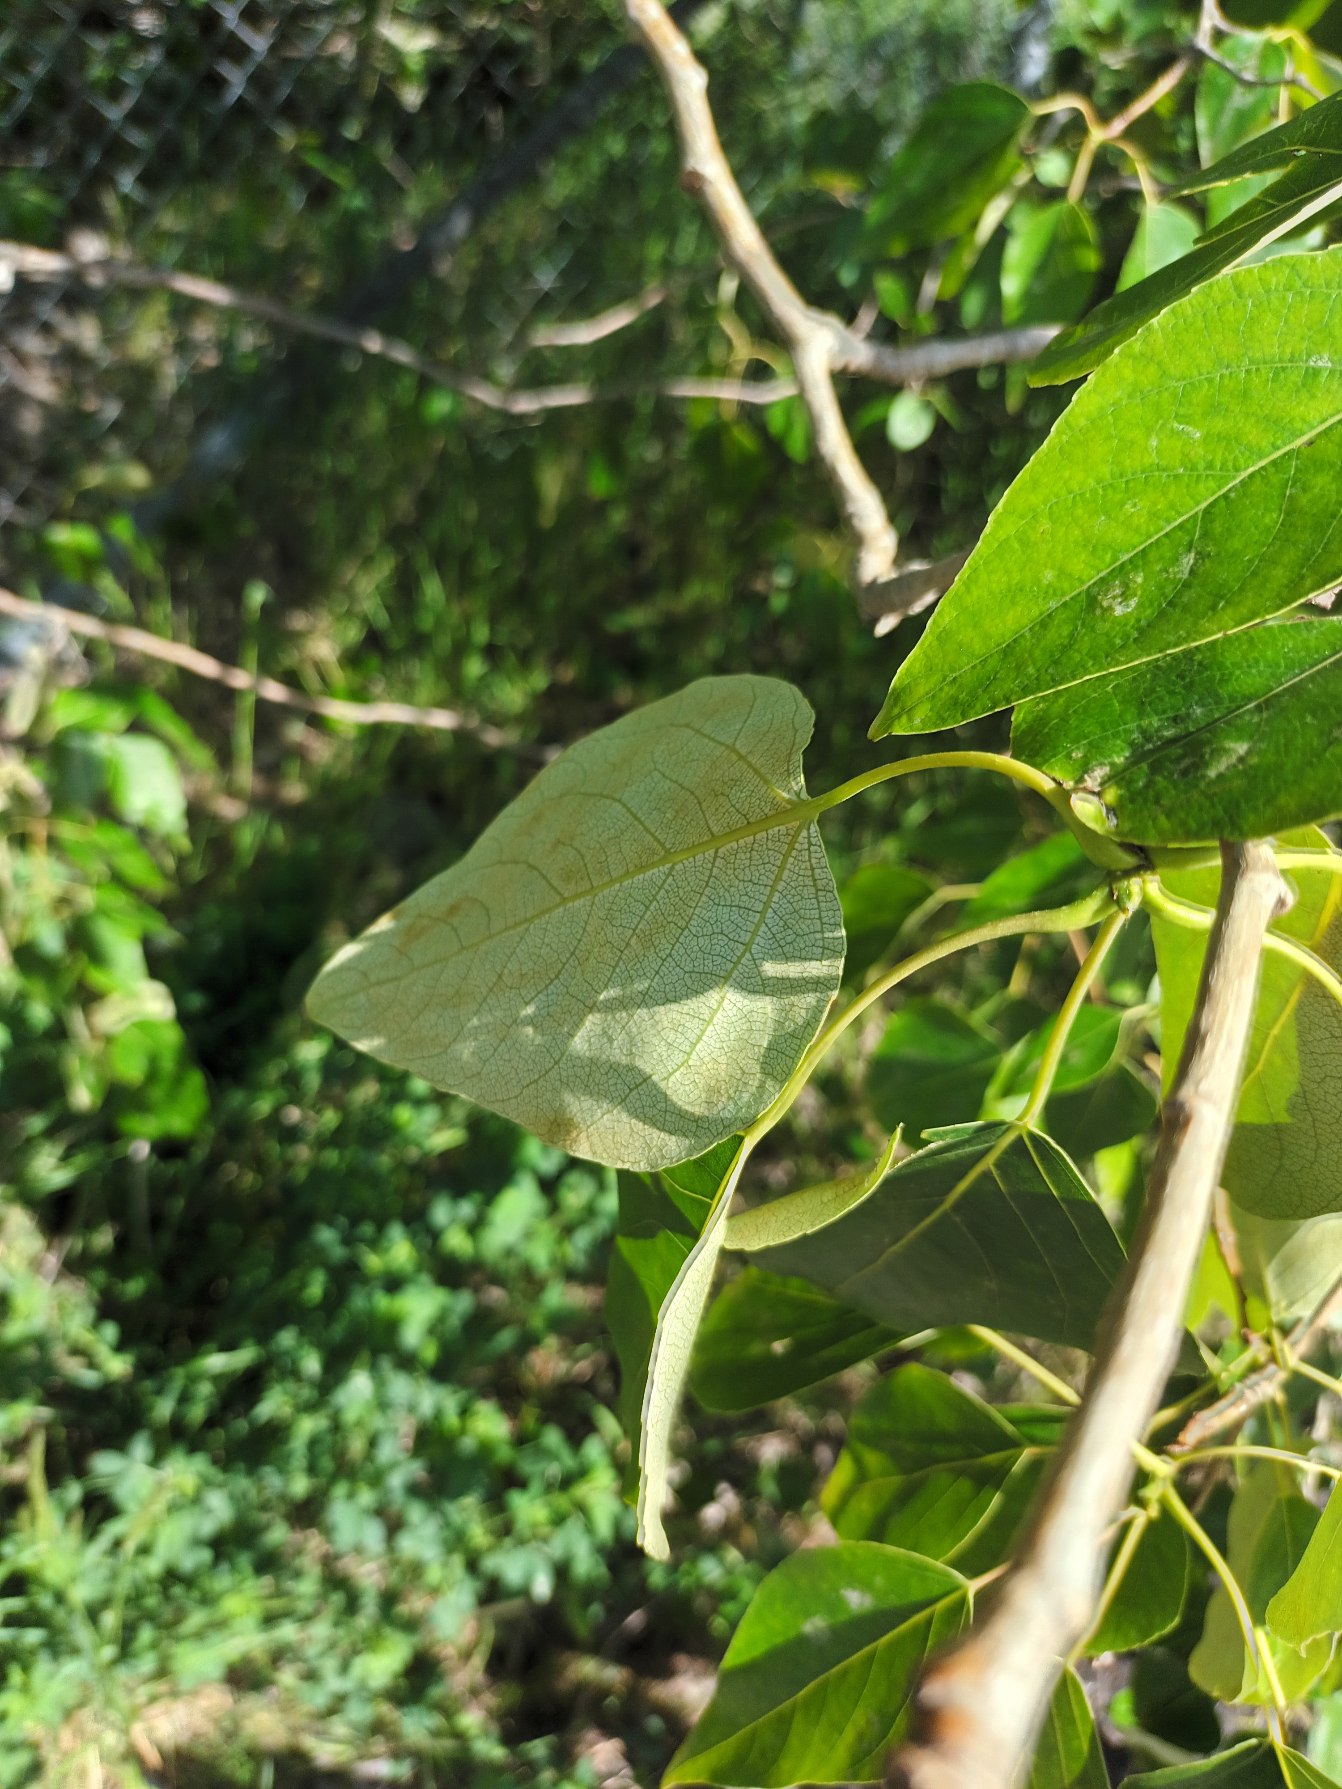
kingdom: Plantae
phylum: Tracheophyta
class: Magnoliopsida
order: Malpighiales
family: Salicaceae
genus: Populus
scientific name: Populus jackii
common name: Engelsk poppel
